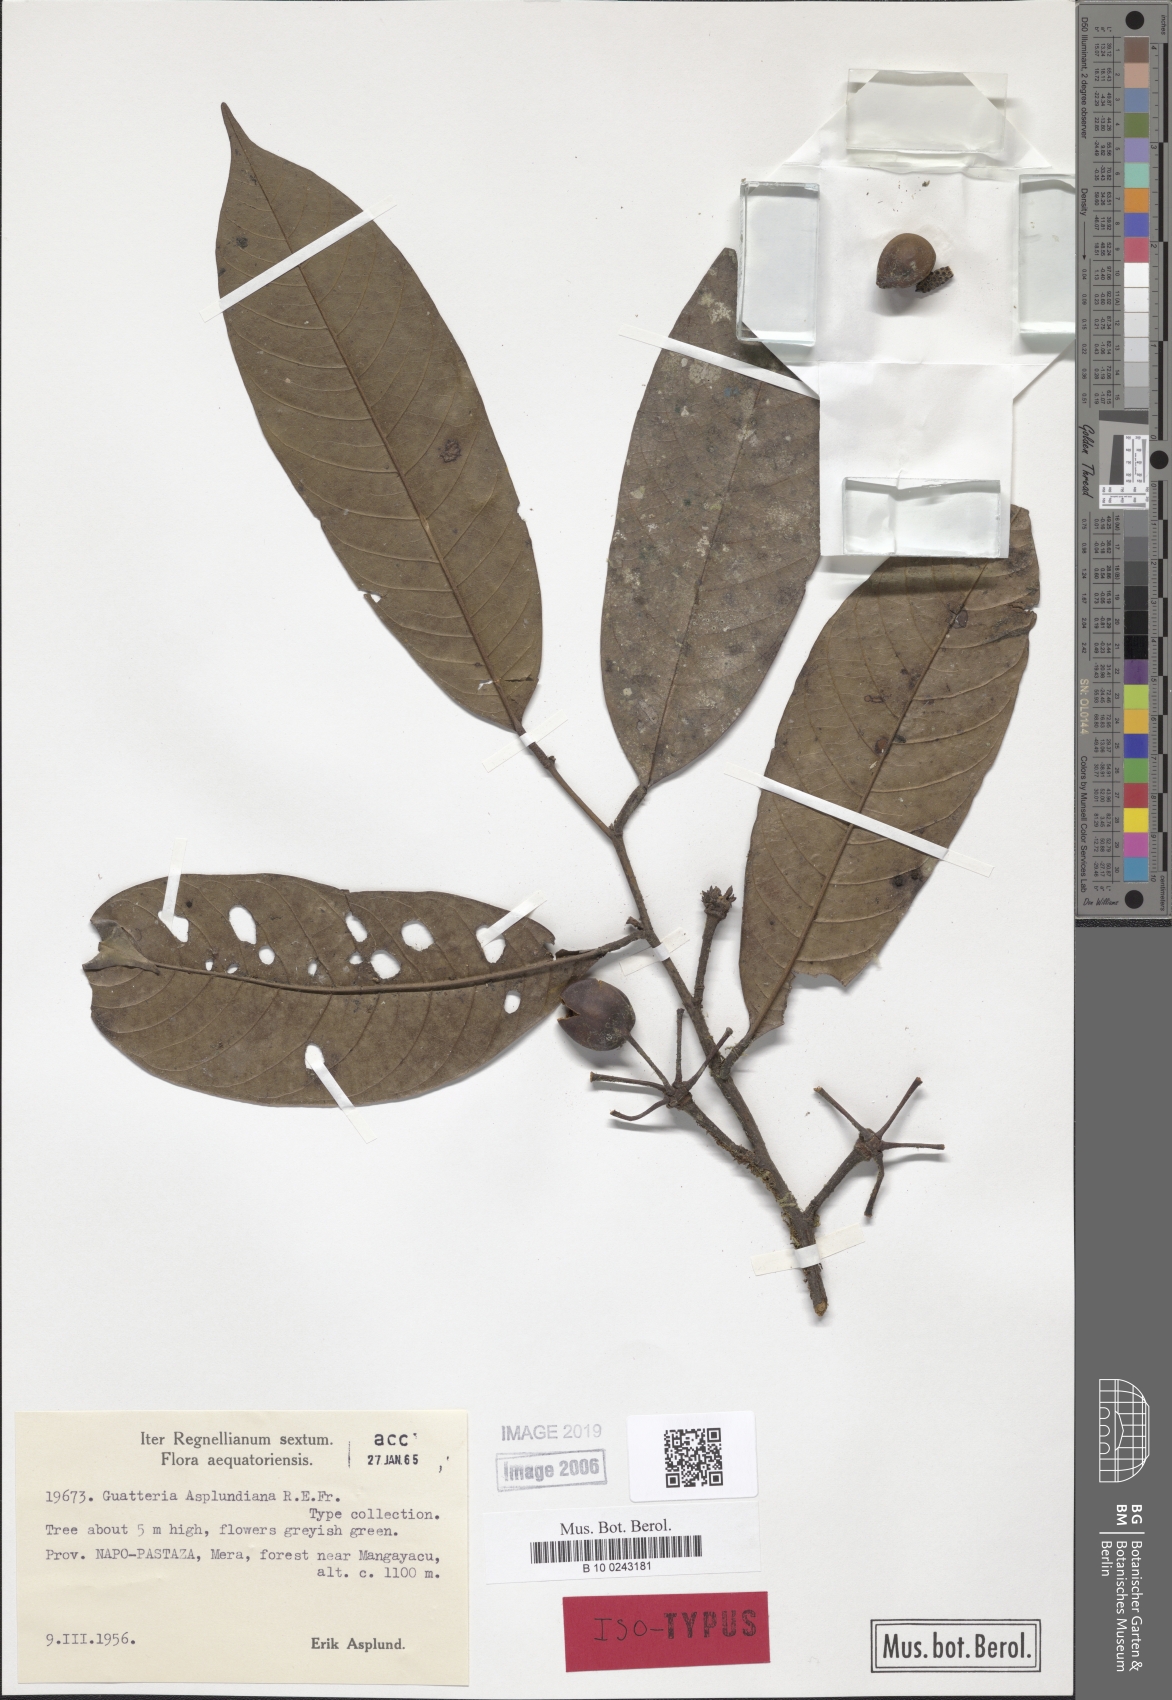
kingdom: Plantae
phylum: Tracheophyta
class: Magnoliopsida
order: Magnoliales
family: Annonaceae
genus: Guatteria
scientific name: Guatteria asplundiana
